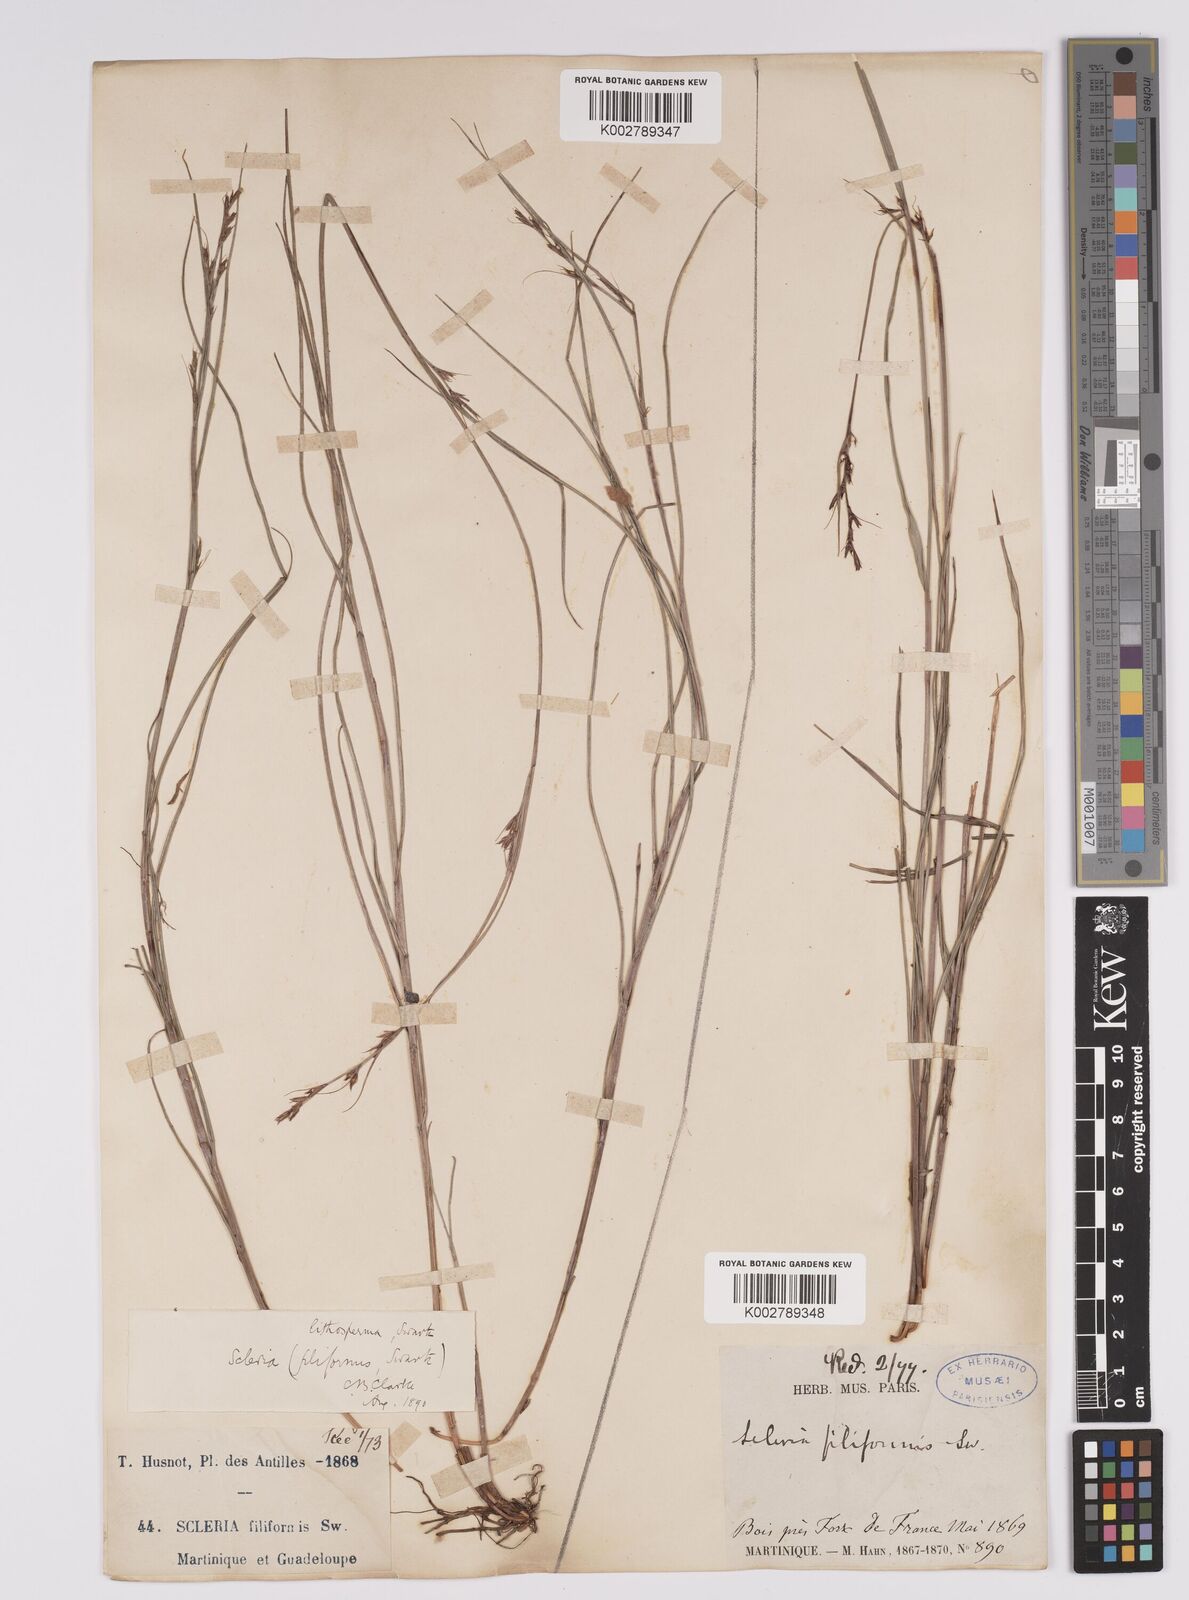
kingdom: Plantae
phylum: Tracheophyta
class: Liliopsida
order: Poales
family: Cyperaceae
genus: Scleria
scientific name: Scleria lithosperma
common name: Florida keys nut-rush
